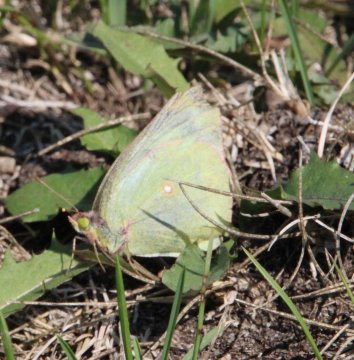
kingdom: Animalia
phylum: Arthropoda
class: Insecta
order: Lepidoptera
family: Pieridae
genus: Colias
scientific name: Colias philodice
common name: Clouded Sulphur
